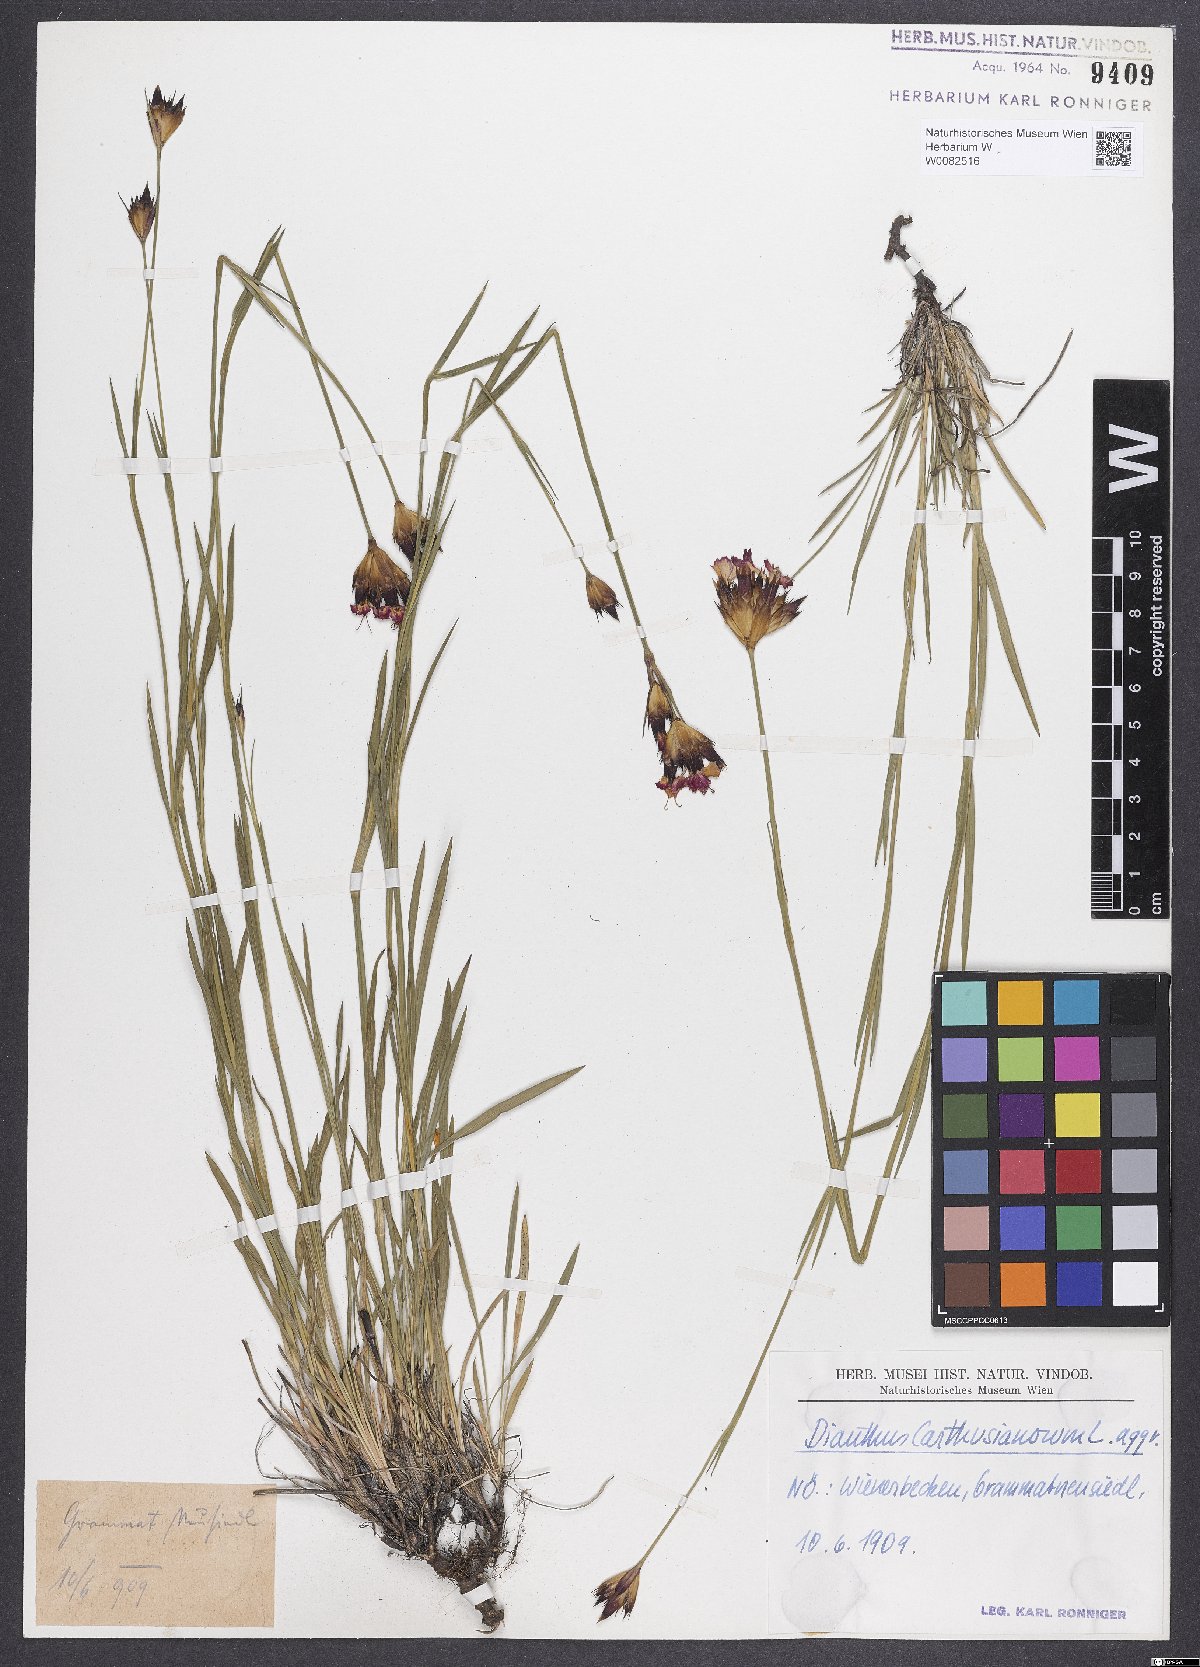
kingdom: Plantae
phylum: Tracheophyta
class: Magnoliopsida
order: Caryophyllales
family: Caryophyllaceae
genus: Dianthus
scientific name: Dianthus carthusianorum
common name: Carthusian pink
